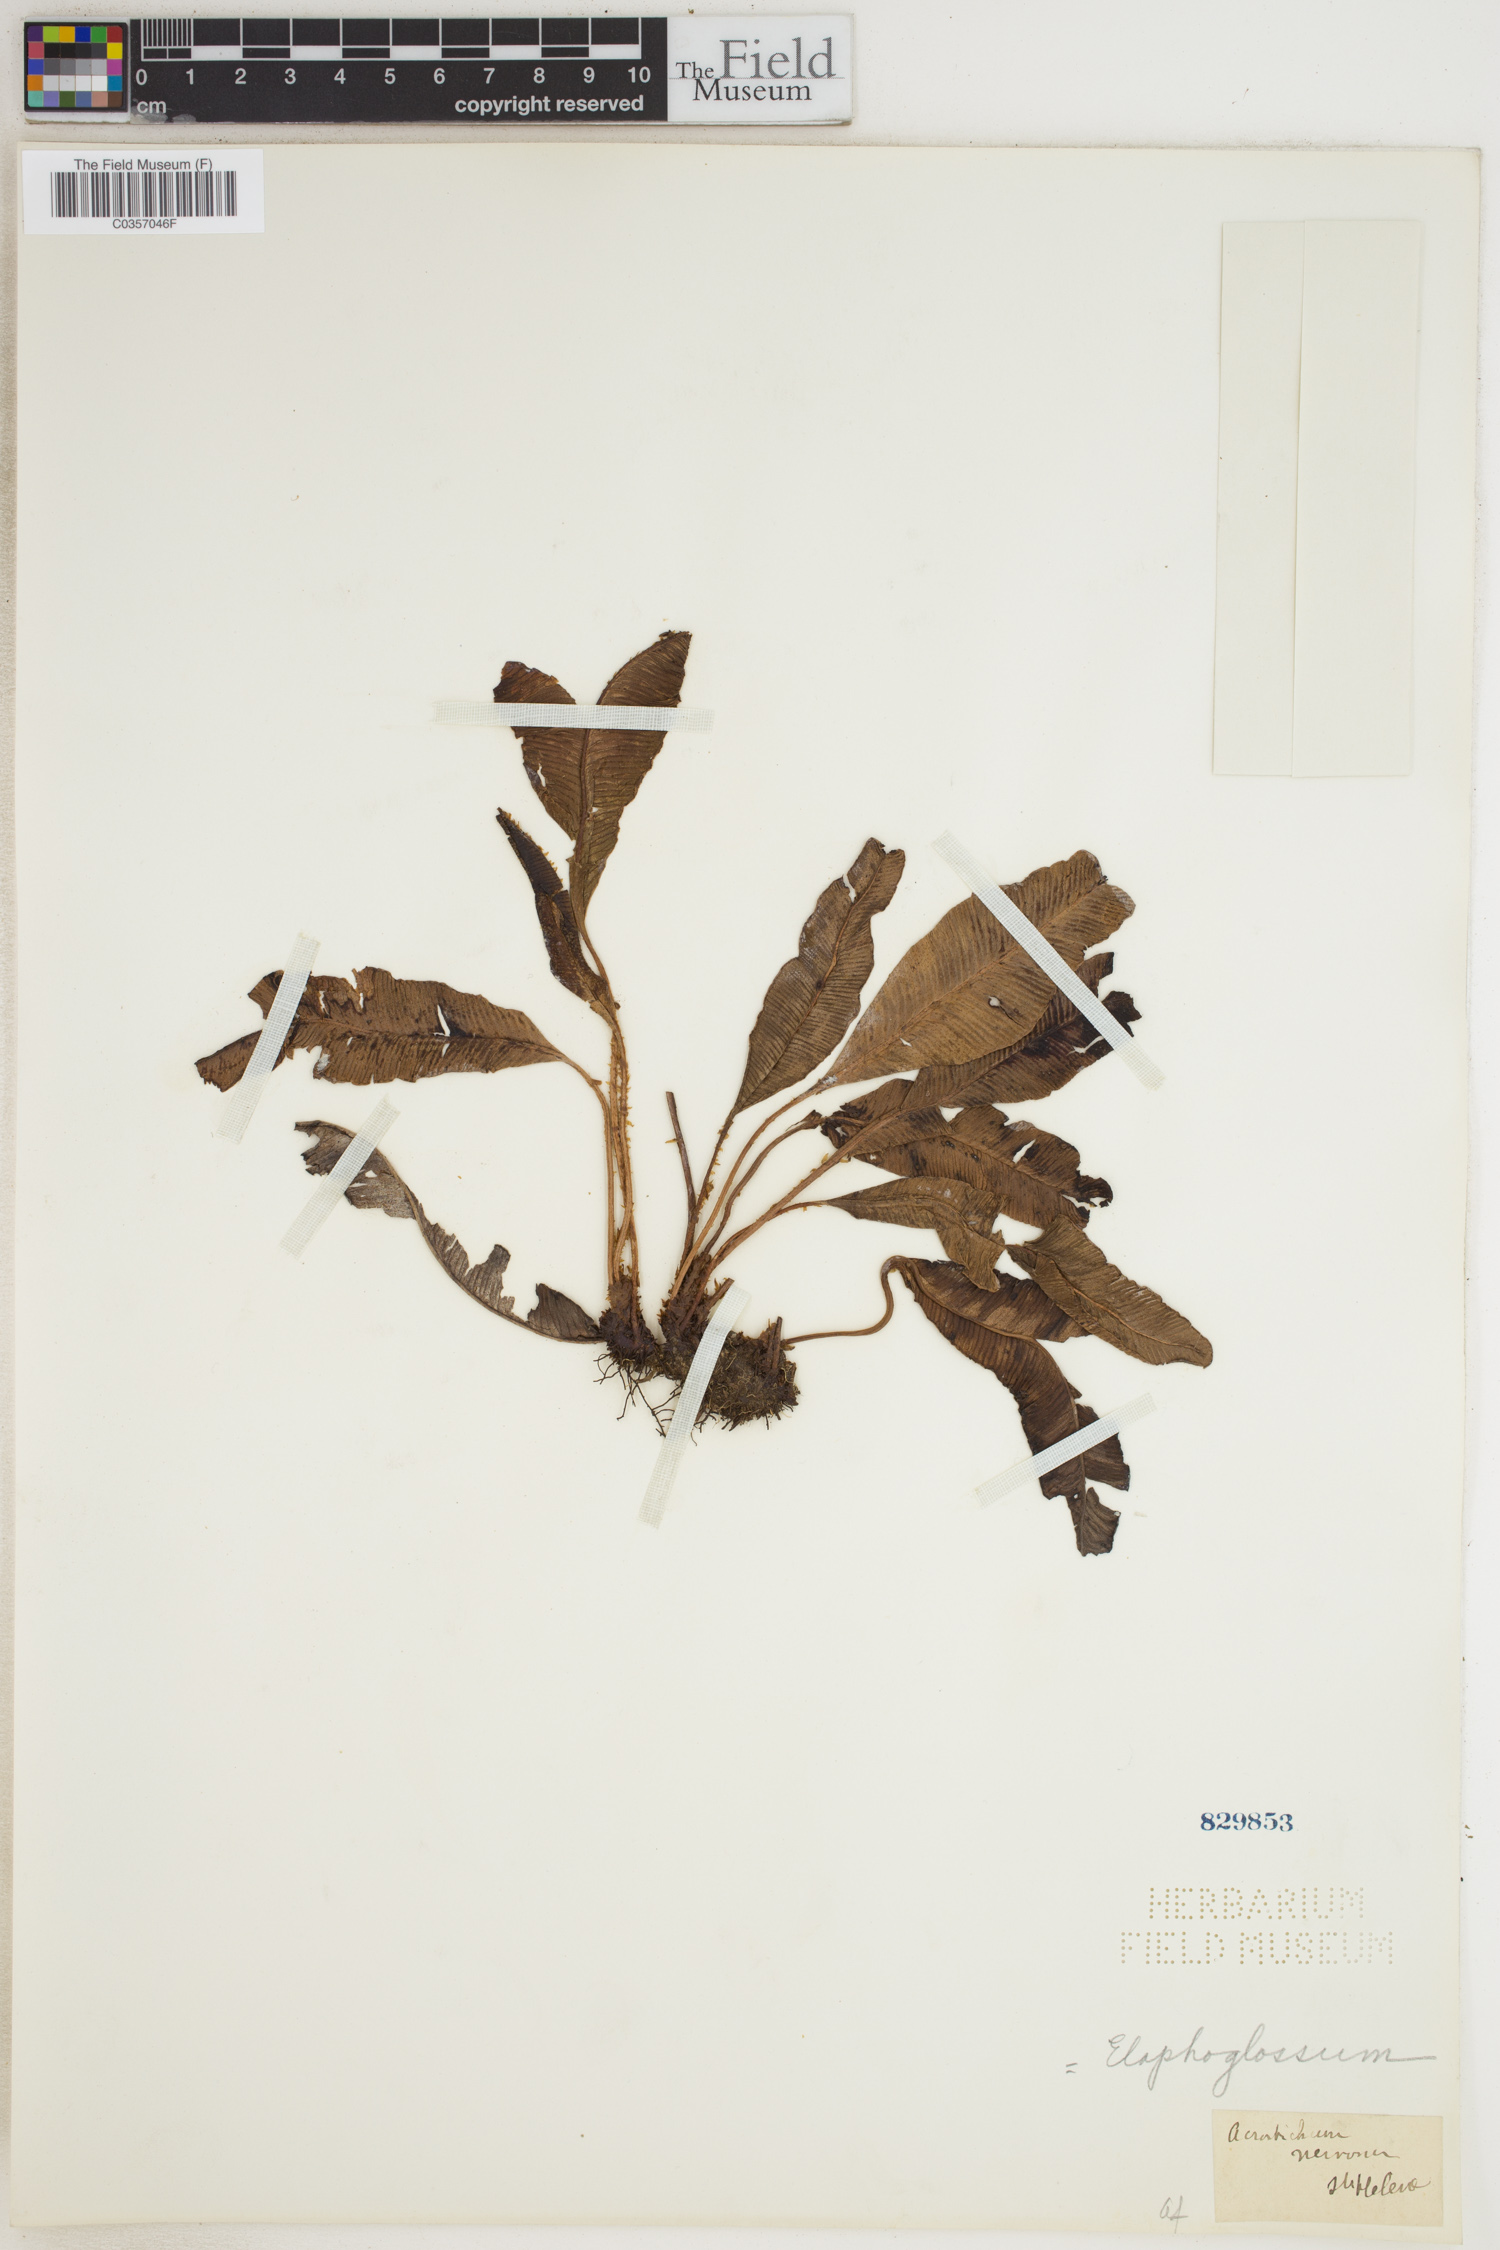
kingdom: Plantae
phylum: Tracheophyta
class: Polypodiopsida
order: Polypodiales
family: Dryopteridaceae
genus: Elaphoglossum
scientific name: Elaphoglossum
